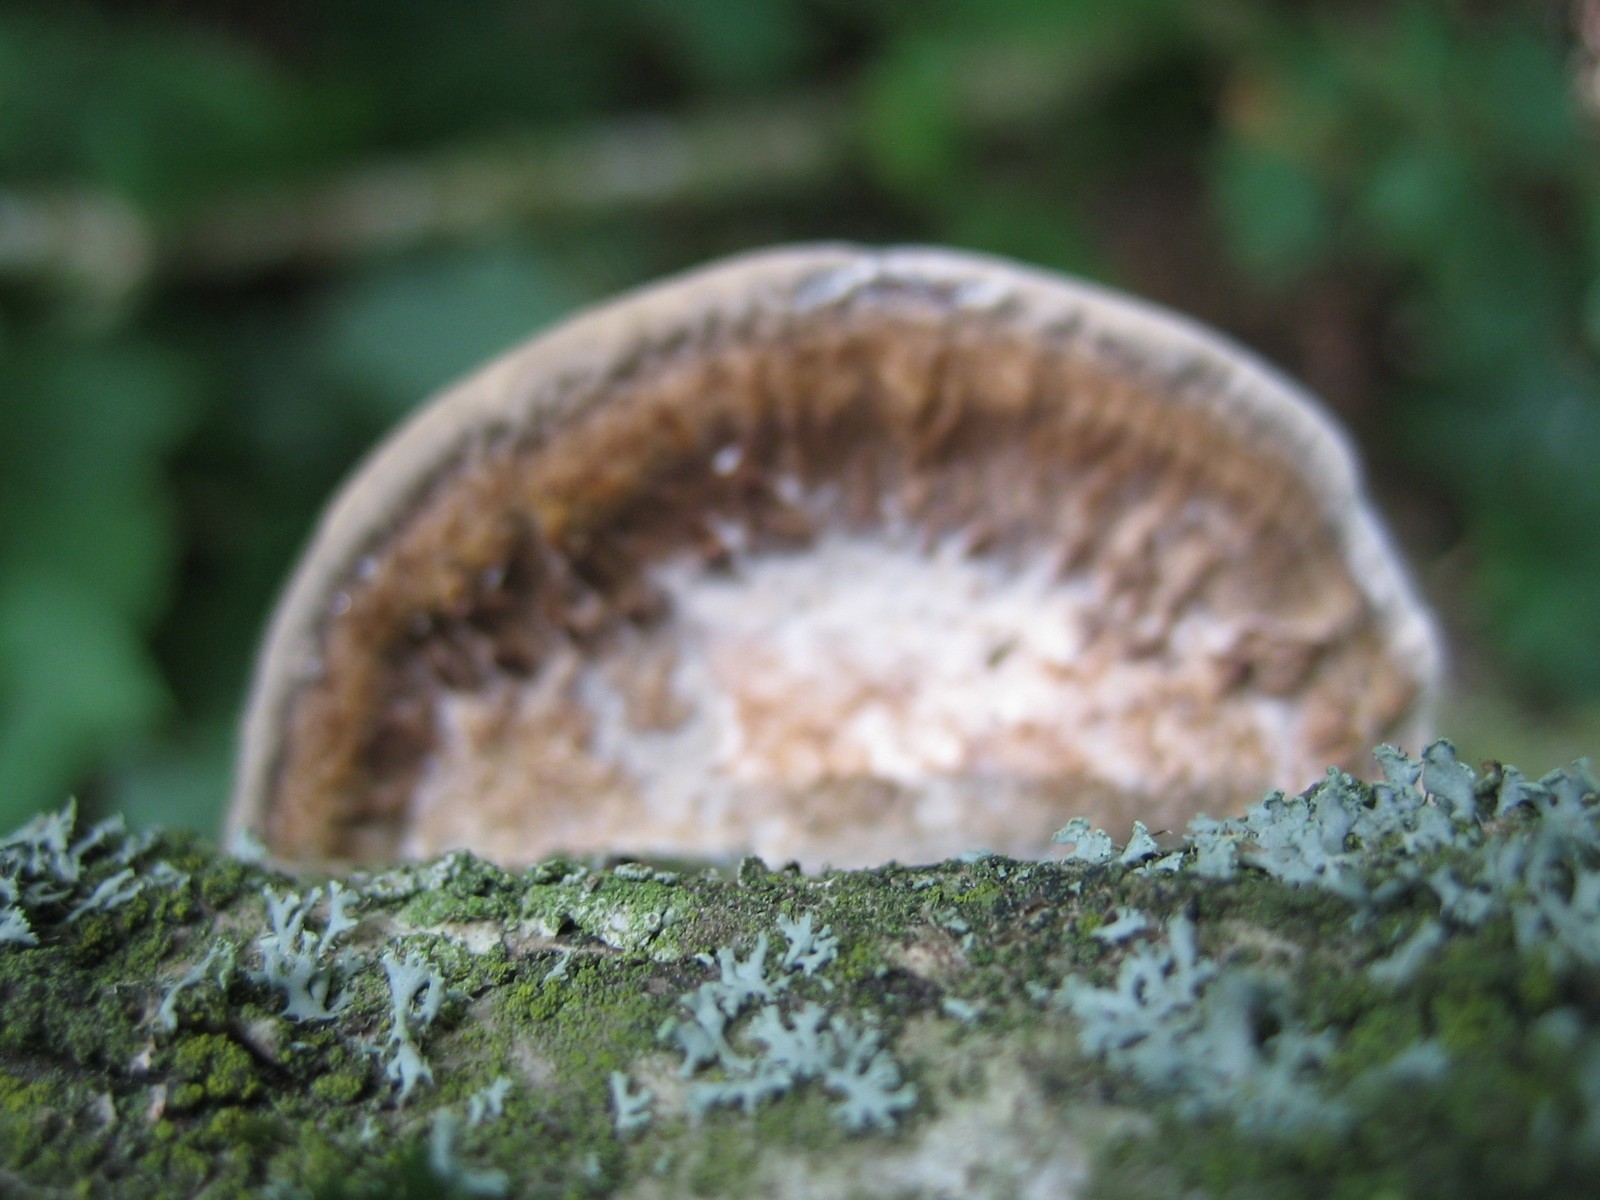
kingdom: Fungi
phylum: Basidiomycota
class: Agaricomycetes
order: Polyporales
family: Polyporaceae
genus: Daedaleopsis
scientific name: Daedaleopsis confragosa
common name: rødmende læderporesvamp
